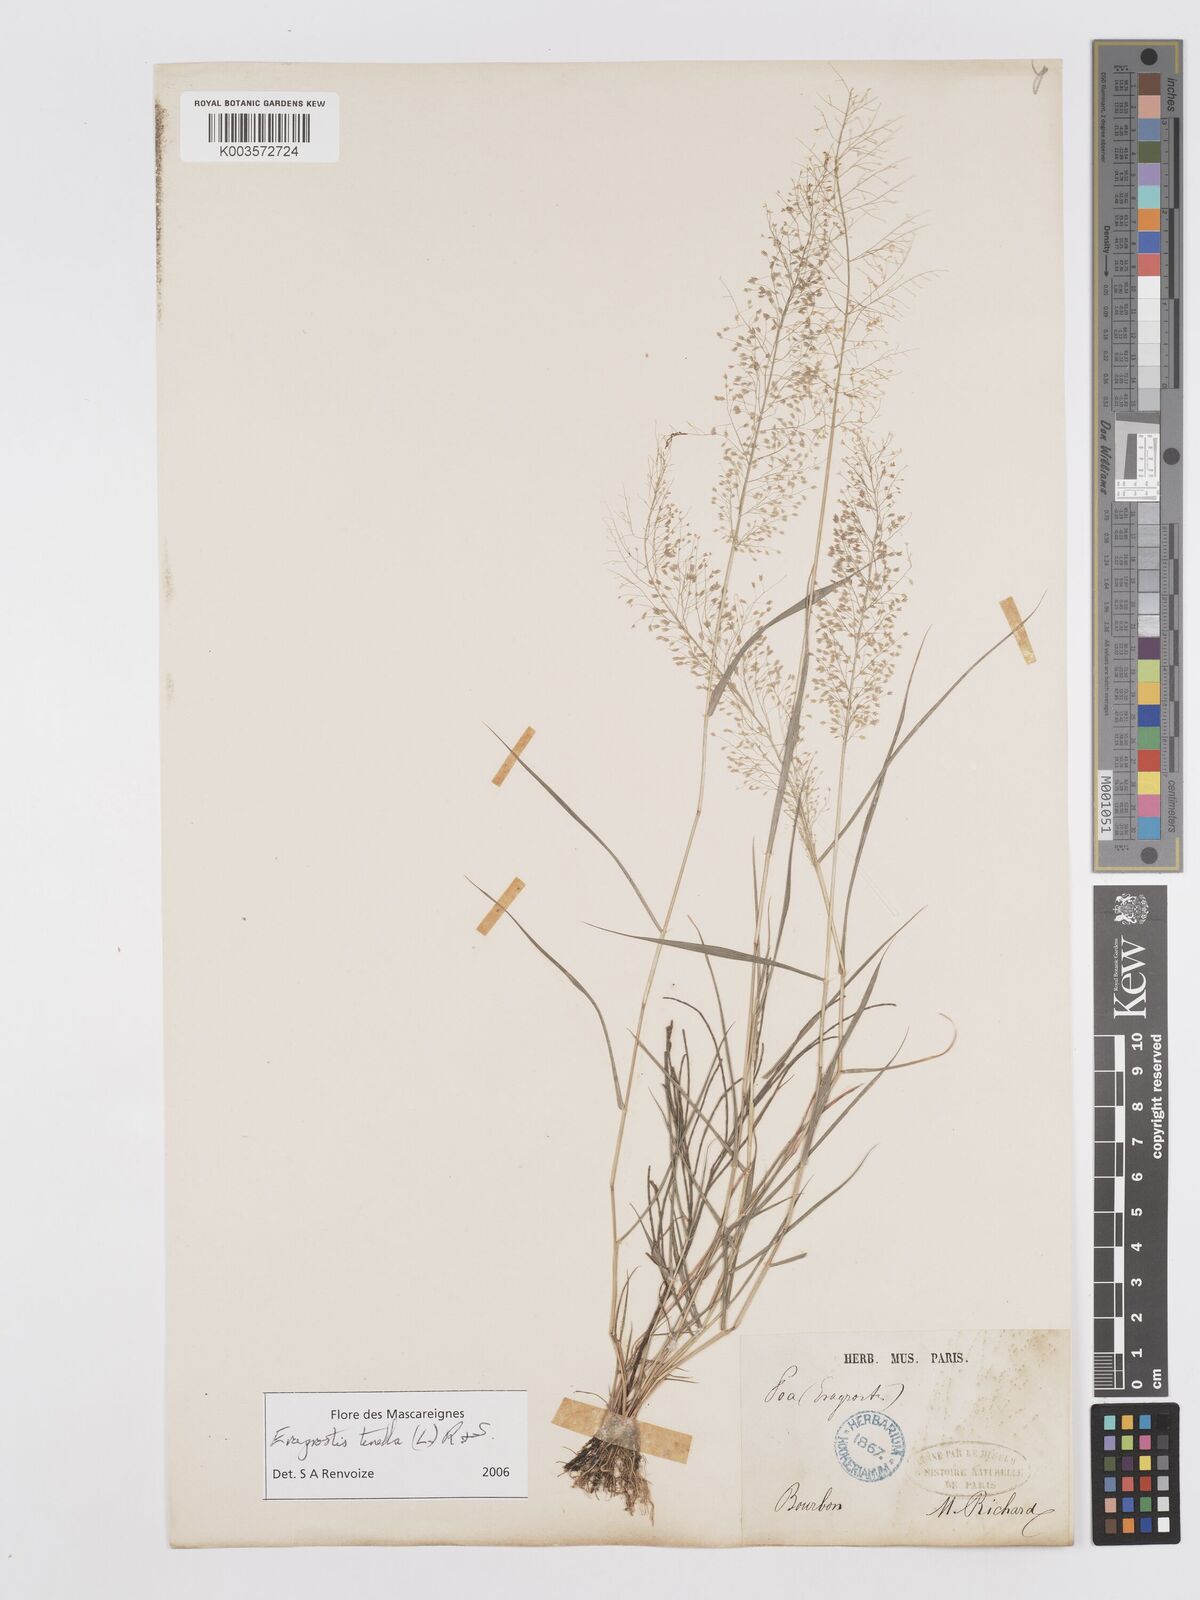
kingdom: Plantae
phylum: Tracheophyta
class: Liliopsida
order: Poales
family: Poaceae
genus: Eragrostis
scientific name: Eragrostis tenella
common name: Japanese lovegrass
